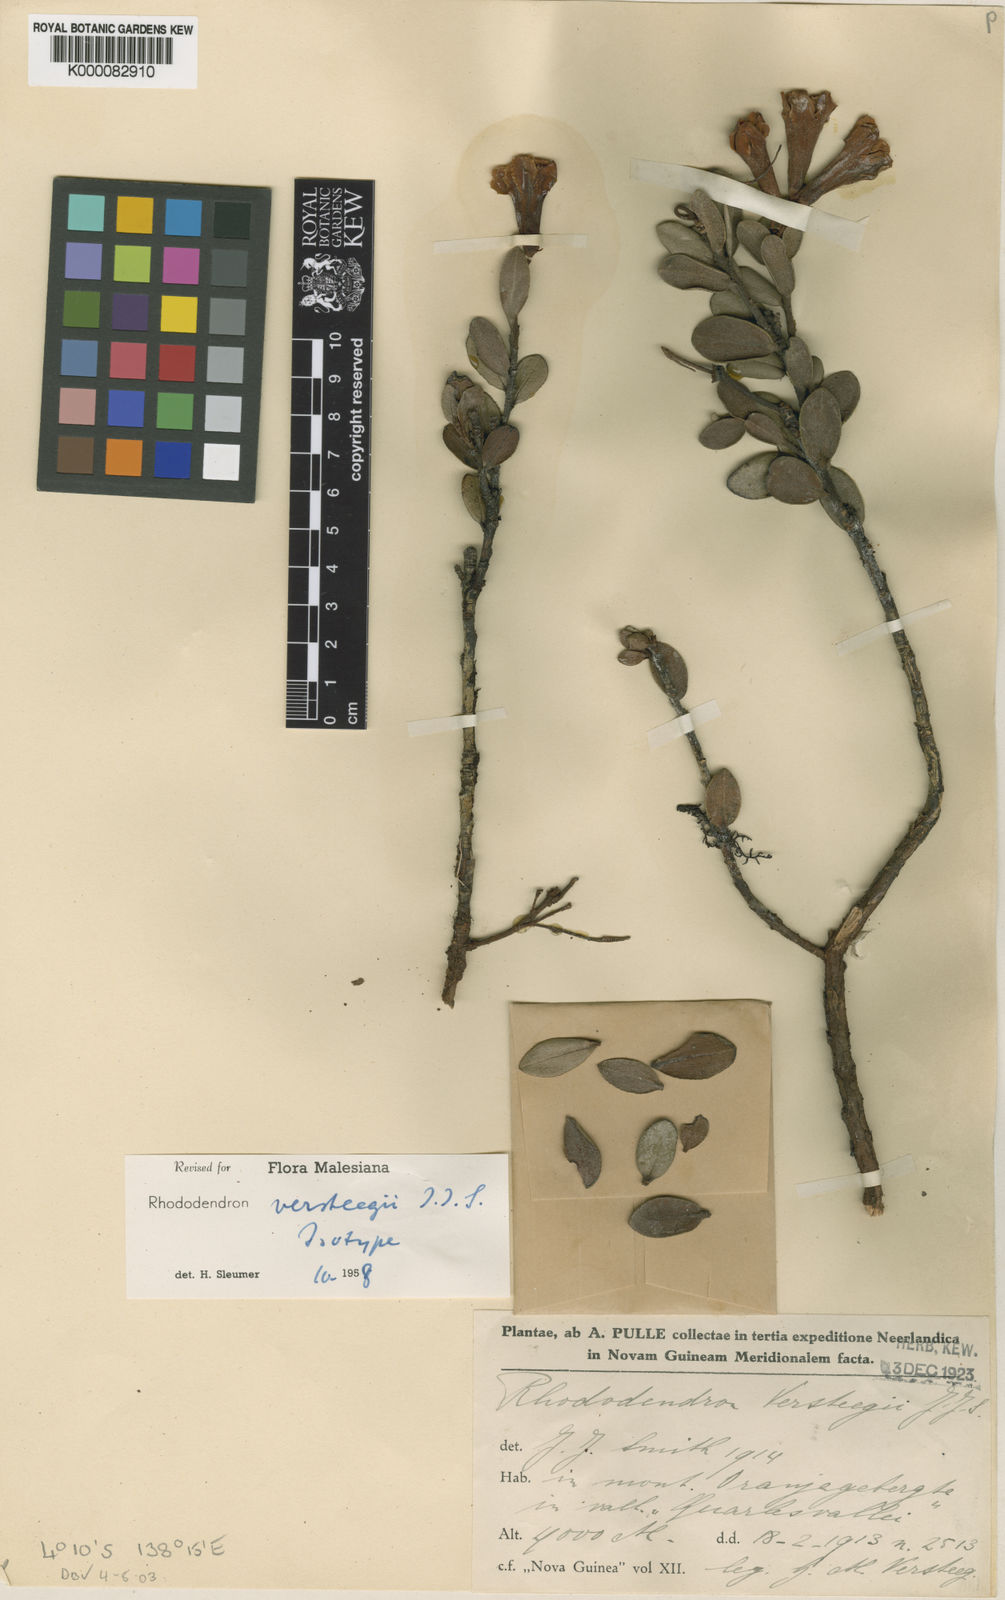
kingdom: Plantae
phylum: Tracheophyta
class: Magnoliopsida
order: Ericales
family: Ericaceae
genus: Rhododendron
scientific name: Rhododendron versteegii
